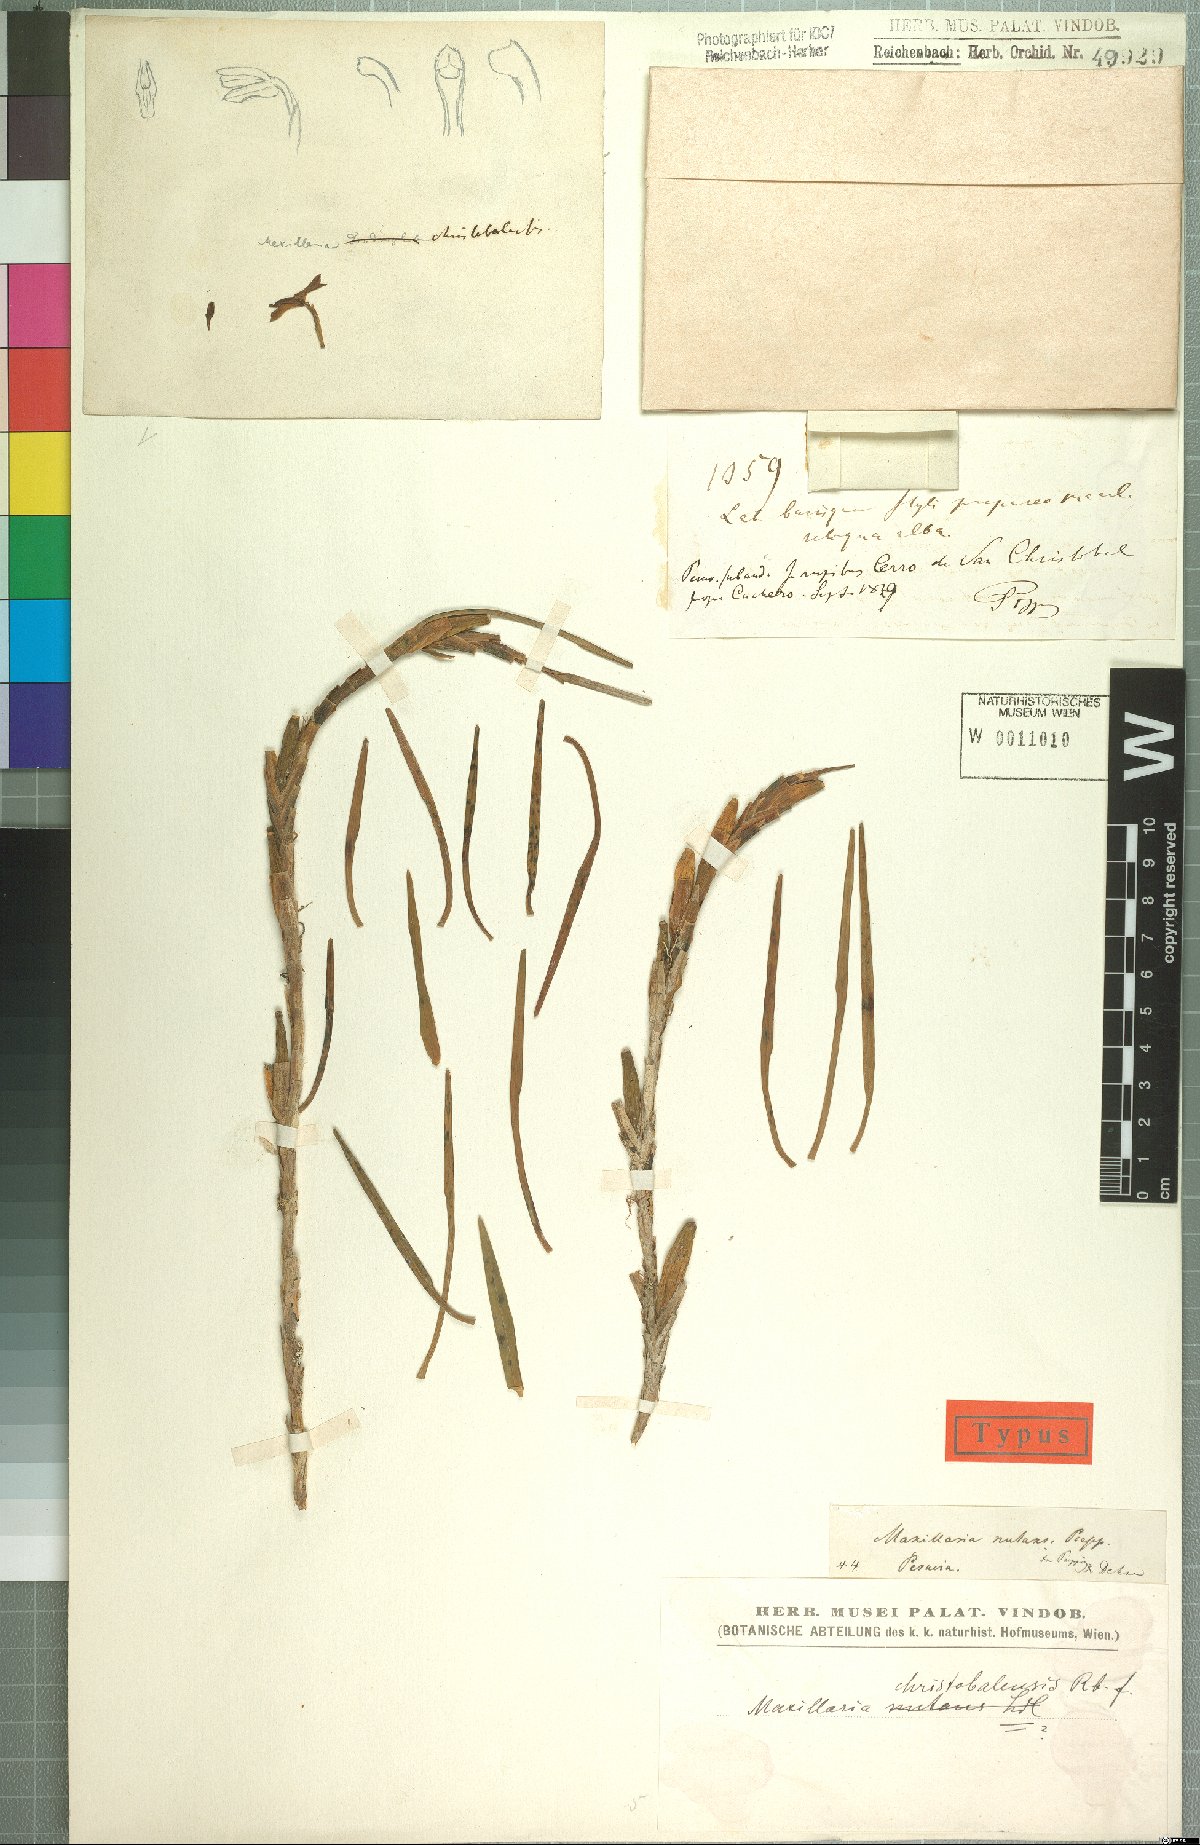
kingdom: Plantae
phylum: Tracheophyta
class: Liliopsida
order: Asparagales
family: Orchidaceae
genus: Maxillaria
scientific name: Maxillaria christobalensis
